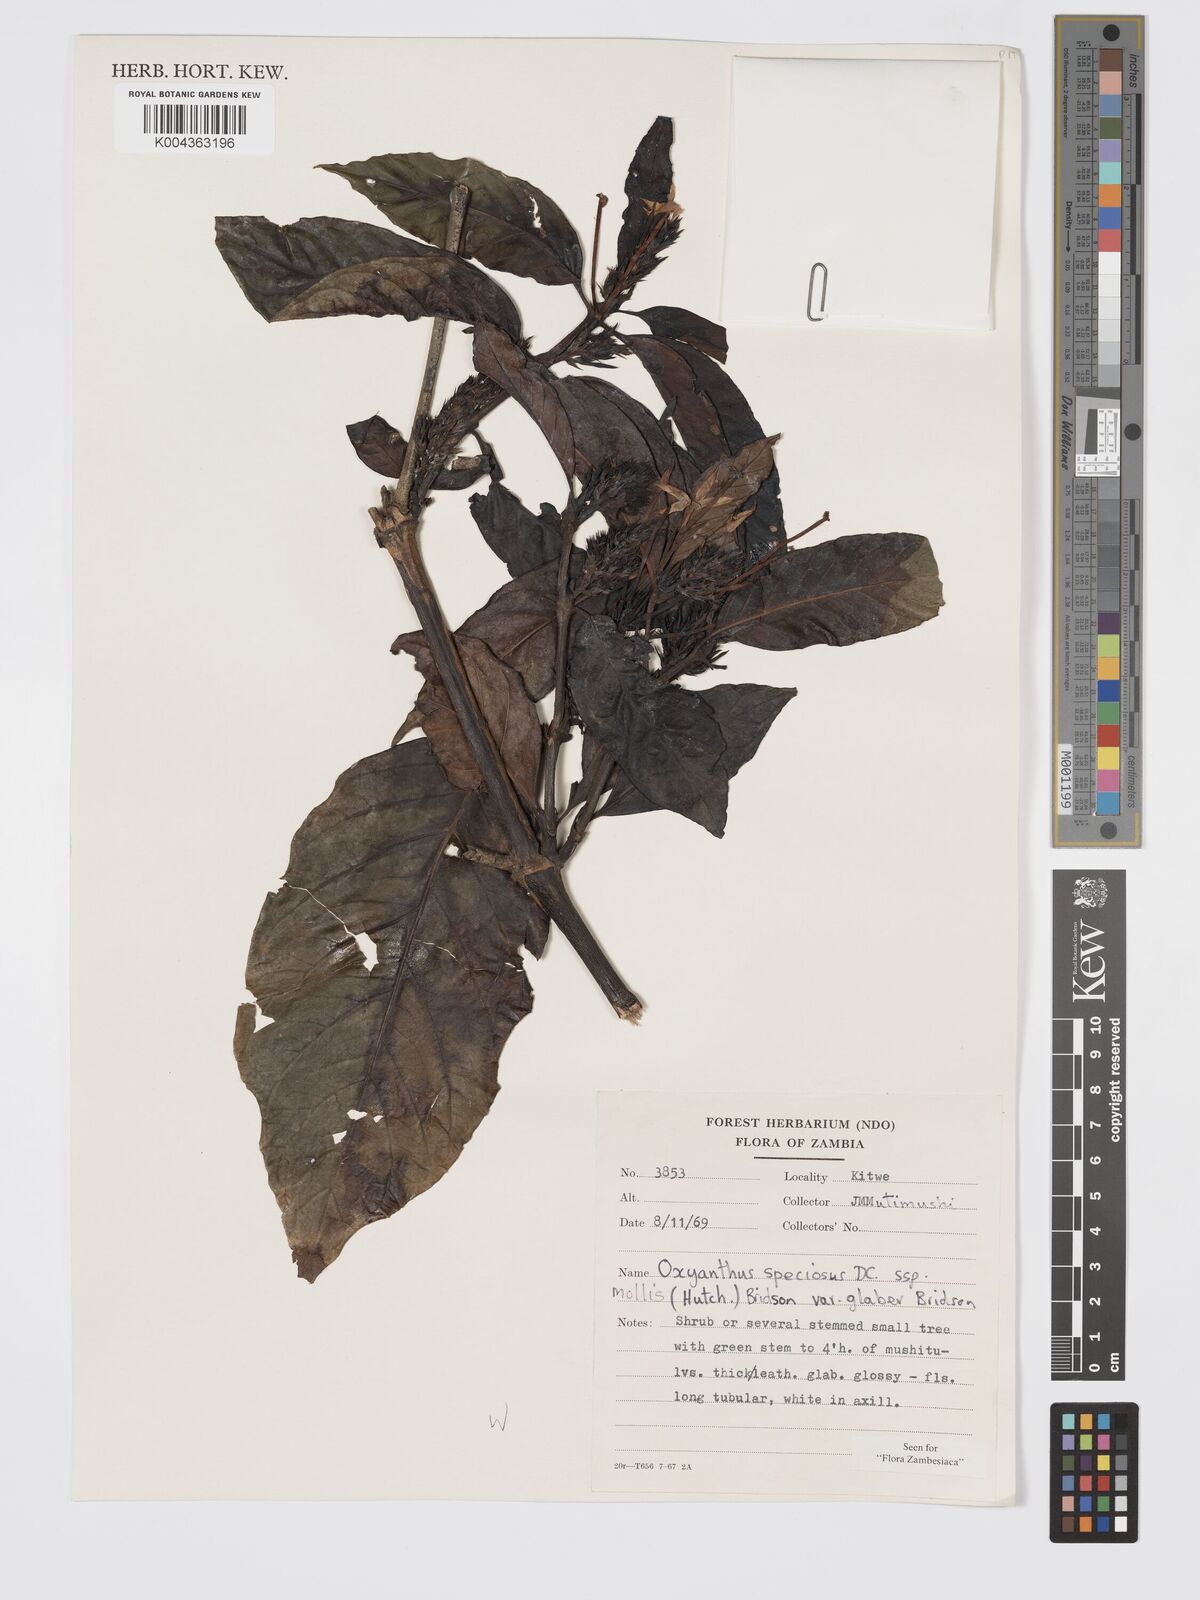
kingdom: Plantae
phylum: Tracheophyta
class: Magnoliopsida
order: Gentianales
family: Rubiaceae
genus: Oxyanthus
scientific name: Oxyanthus speciosus
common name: Whipstick loquat
